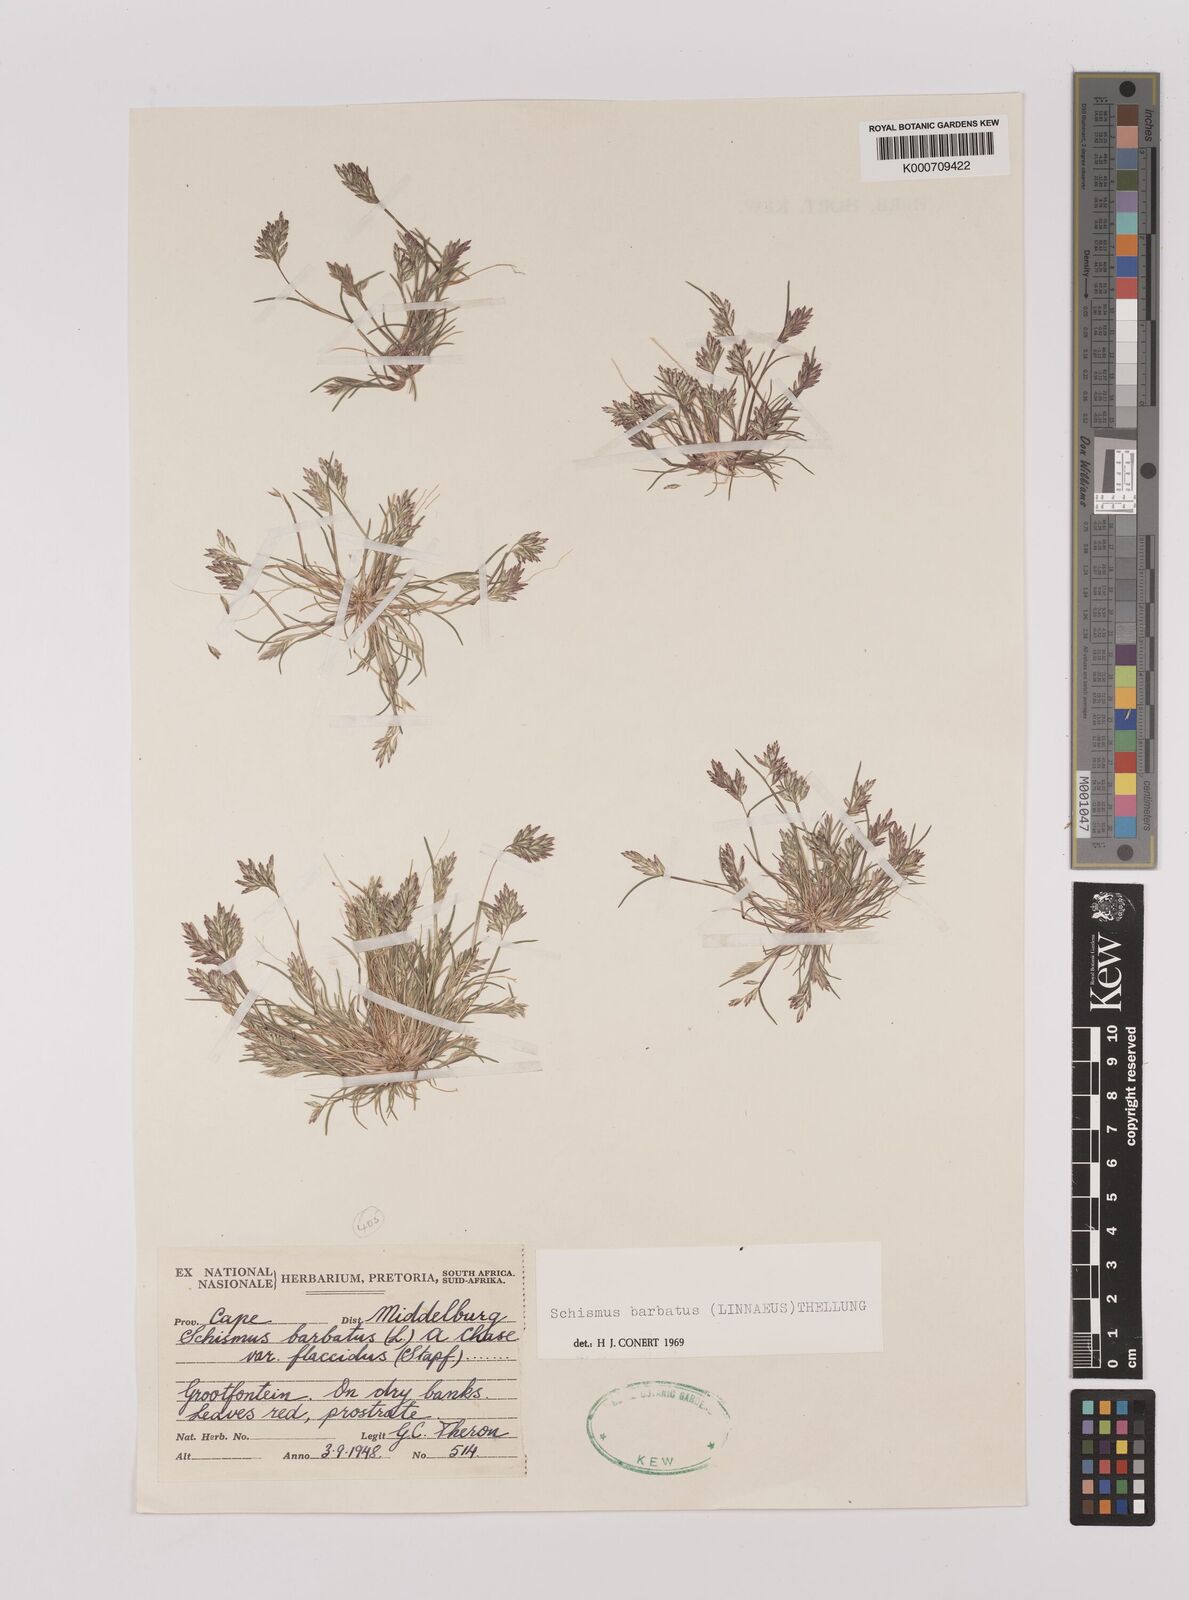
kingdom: Plantae
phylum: Tracheophyta
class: Liliopsida
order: Poales
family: Poaceae
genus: Schismus
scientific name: Schismus barbatus
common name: Kelch-grass
